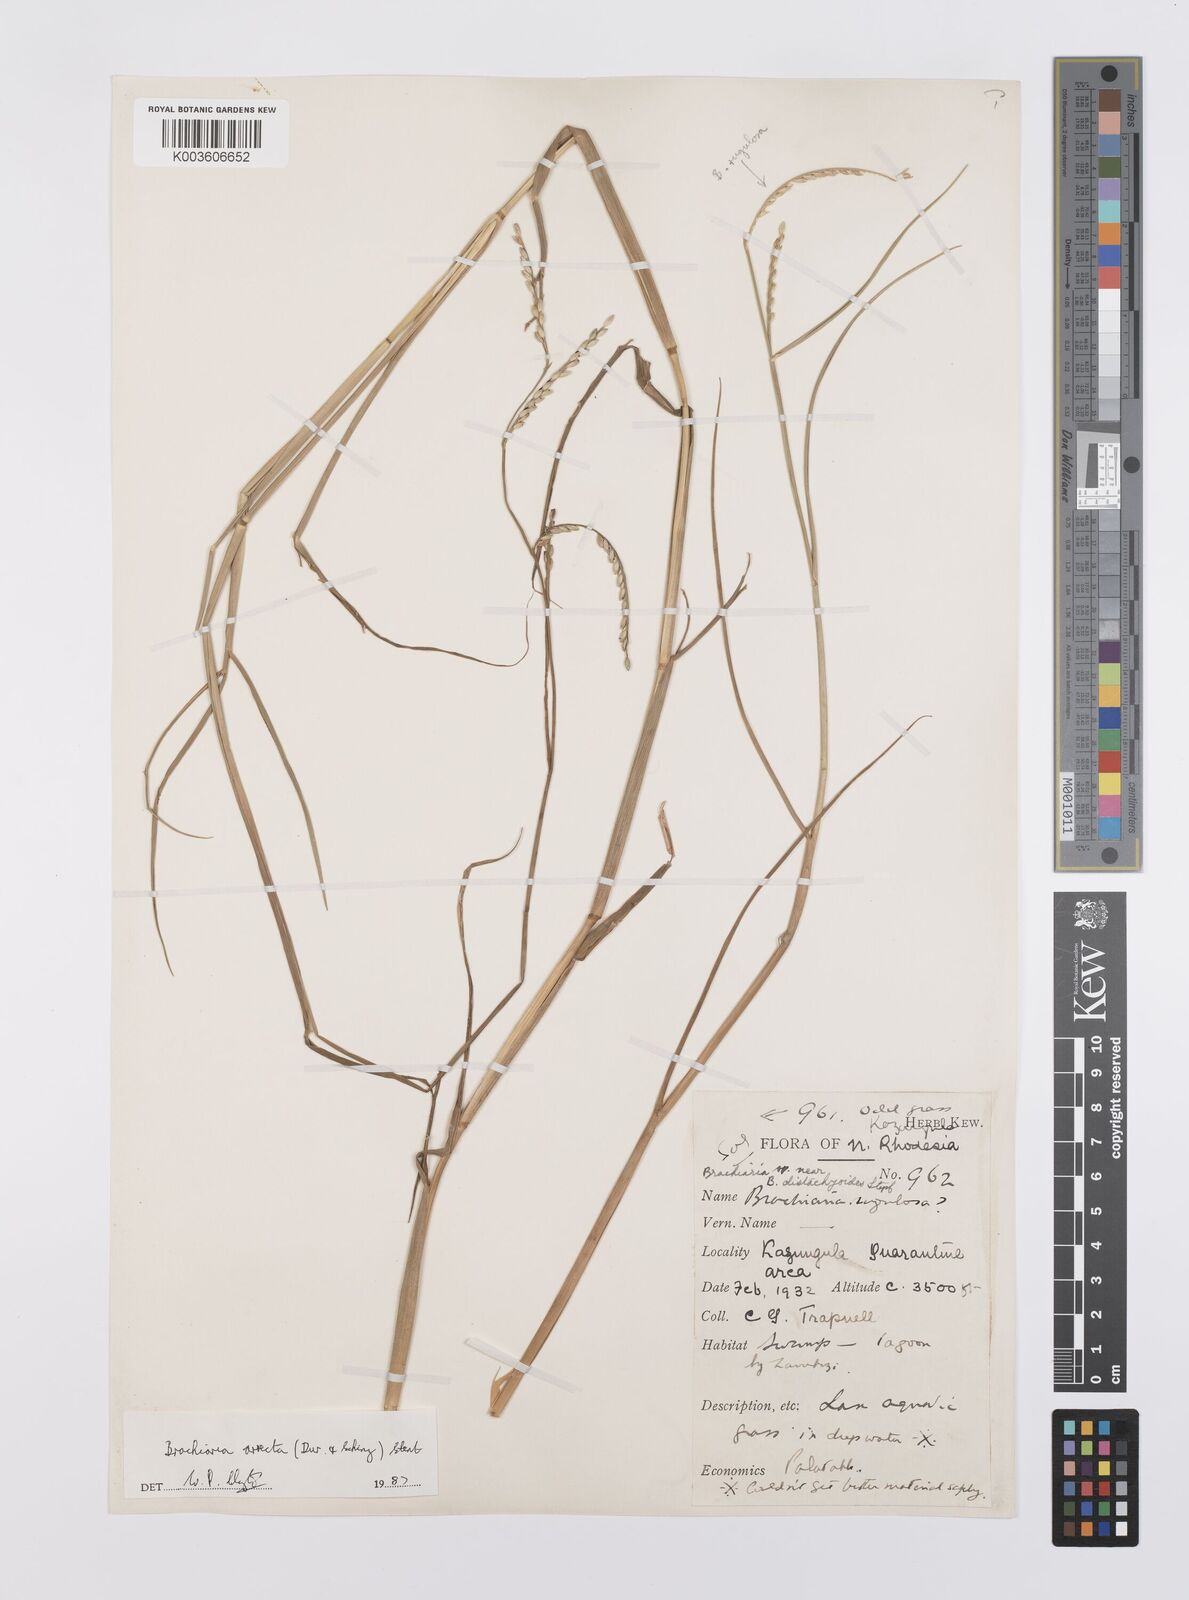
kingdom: Plantae
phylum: Tracheophyta
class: Liliopsida
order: Poales
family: Poaceae
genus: Urochloa
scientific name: Urochloa arrecta
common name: African signalgrass
